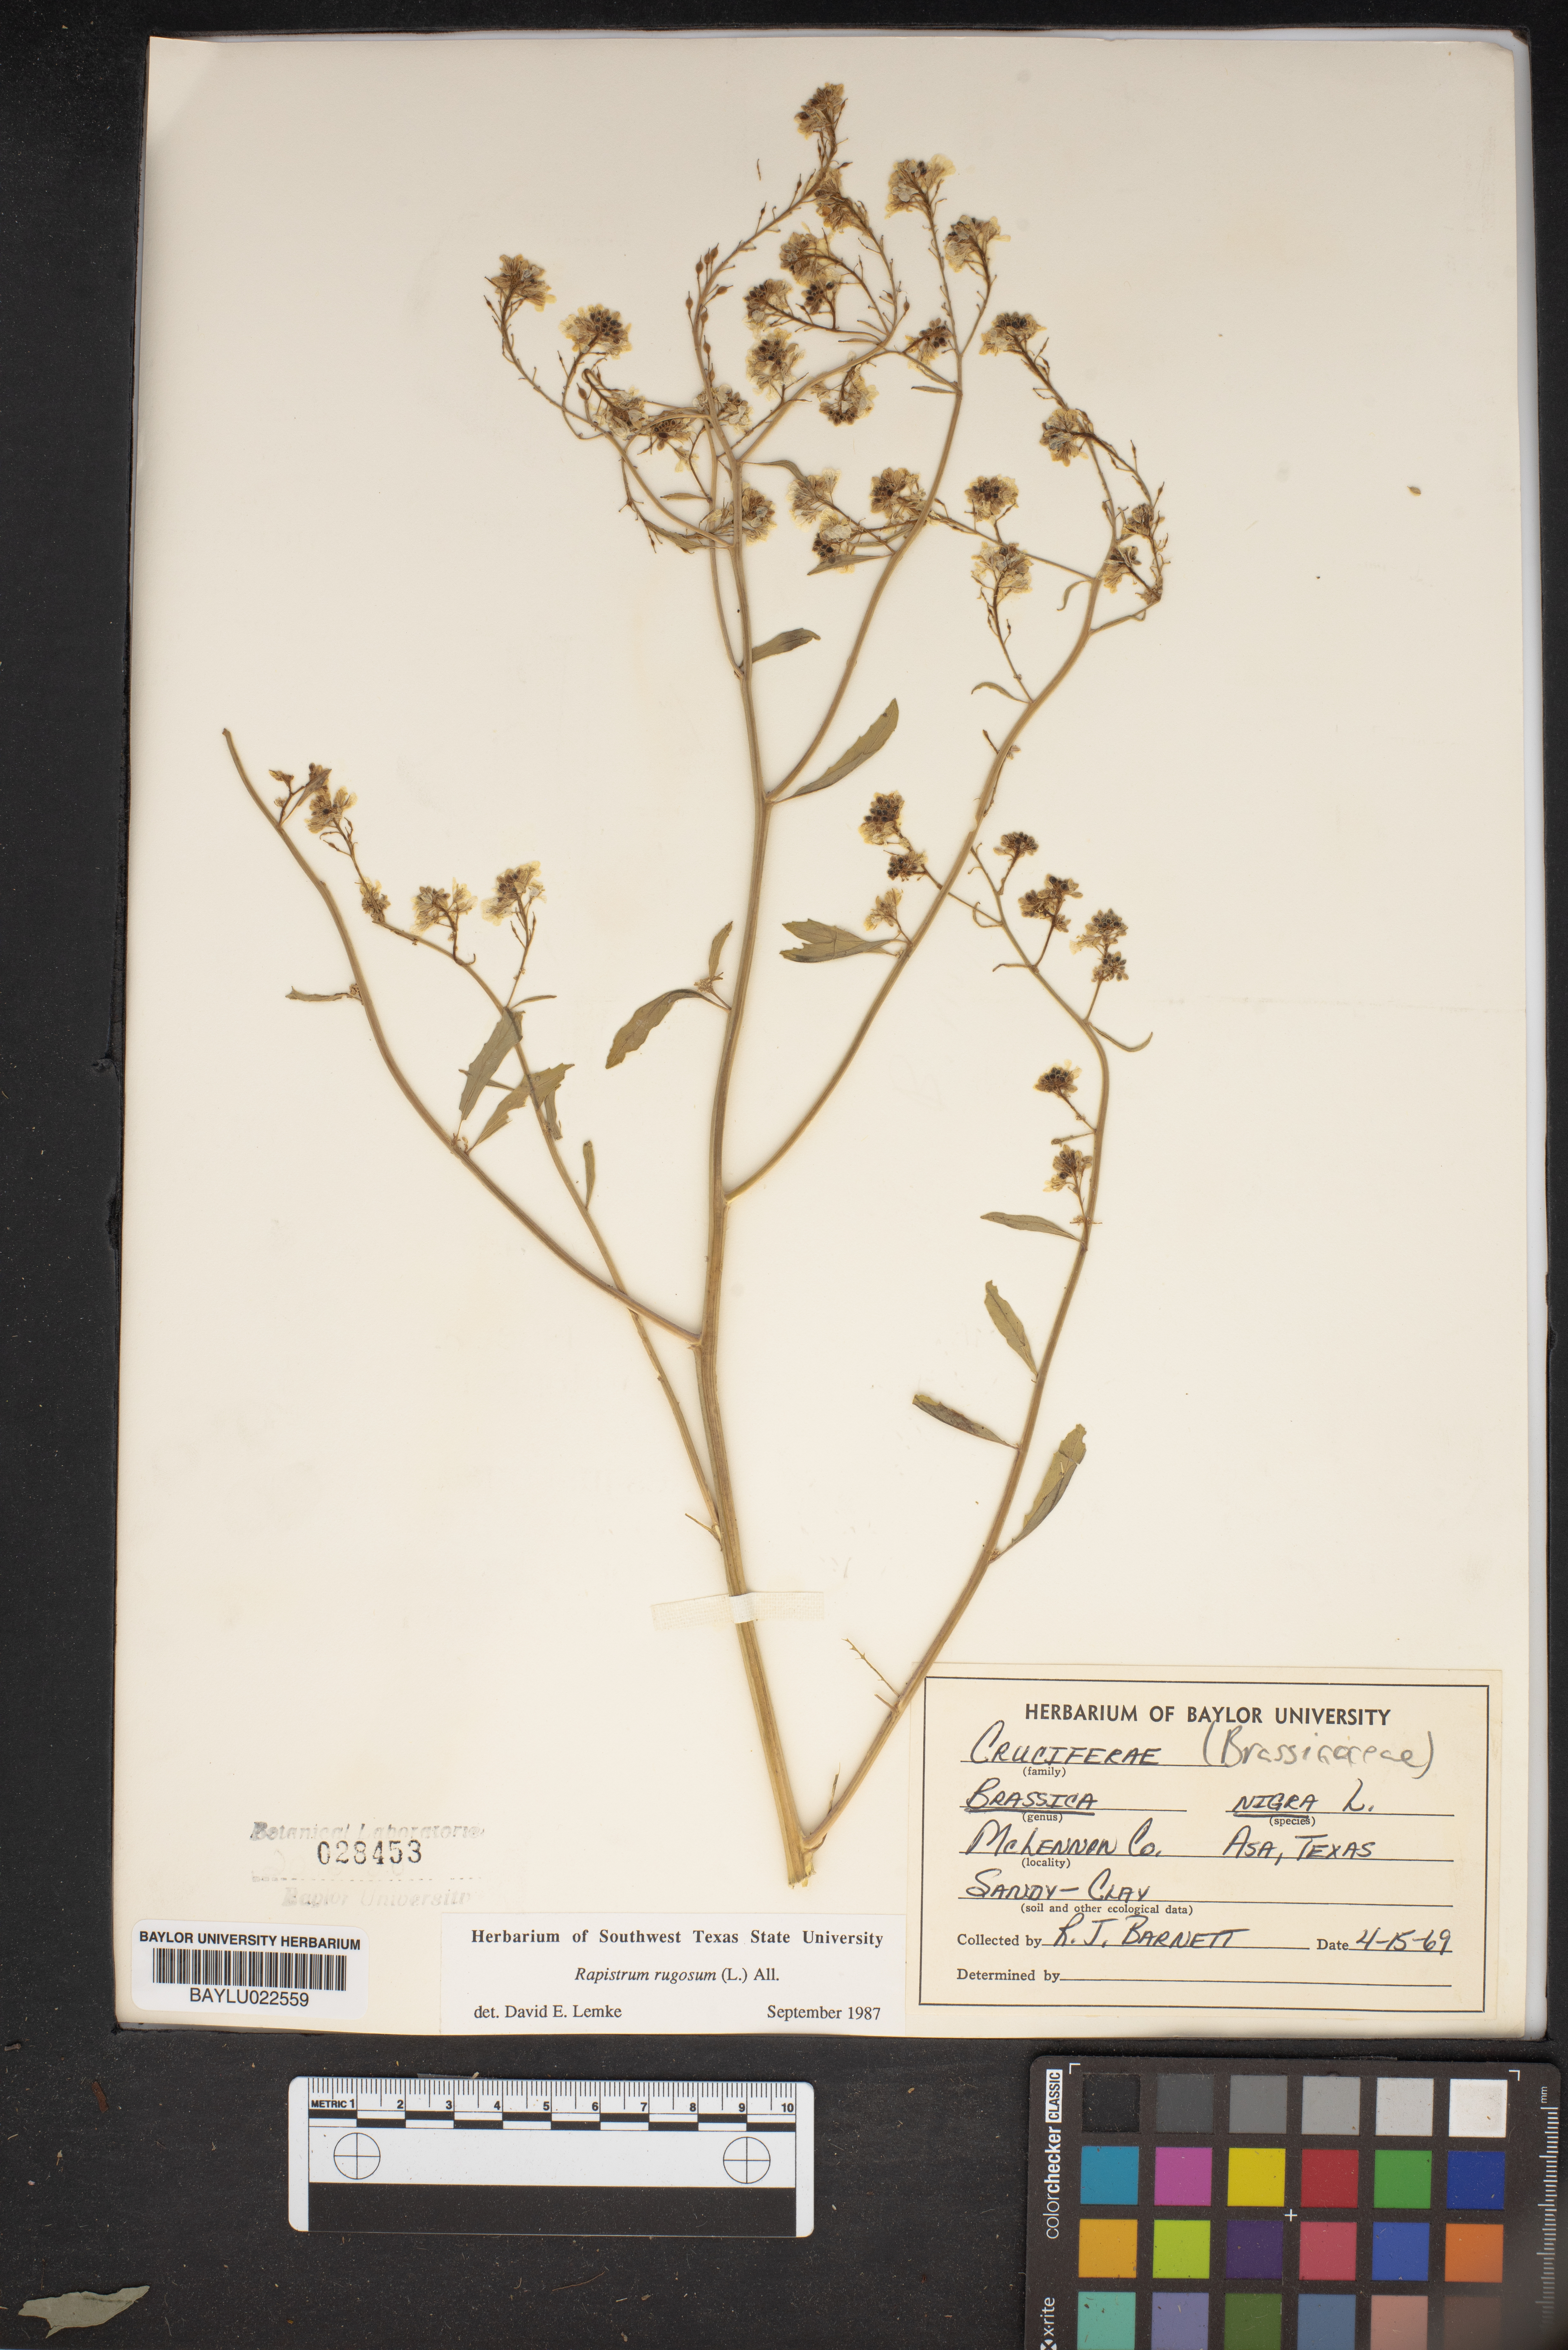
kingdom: Plantae
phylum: Tracheophyta
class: Magnoliopsida
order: Brassicales
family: Brassicaceae
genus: Brassica
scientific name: Brassica nigra
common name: Black mustard
